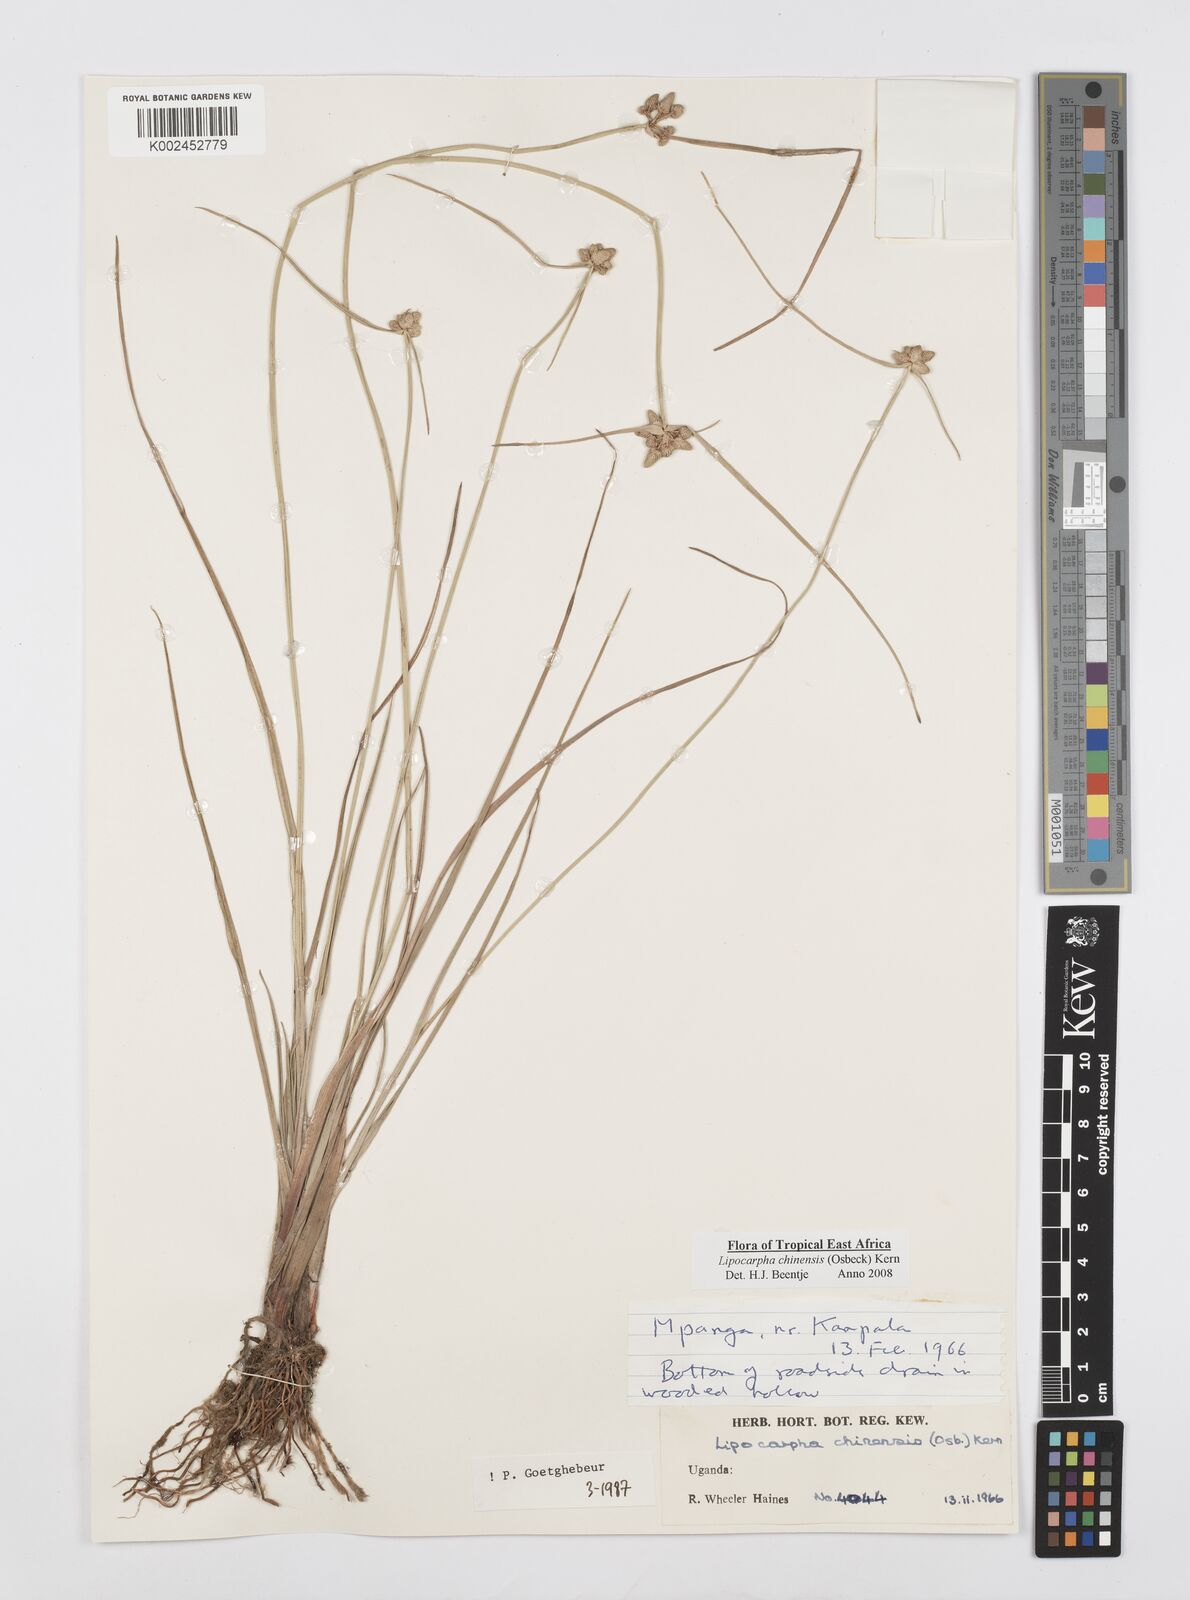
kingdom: Plantae
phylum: Tracheophyta
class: Liliopsida
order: Poales
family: Cyperaceae
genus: Cyperus
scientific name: Cyperus albescens
